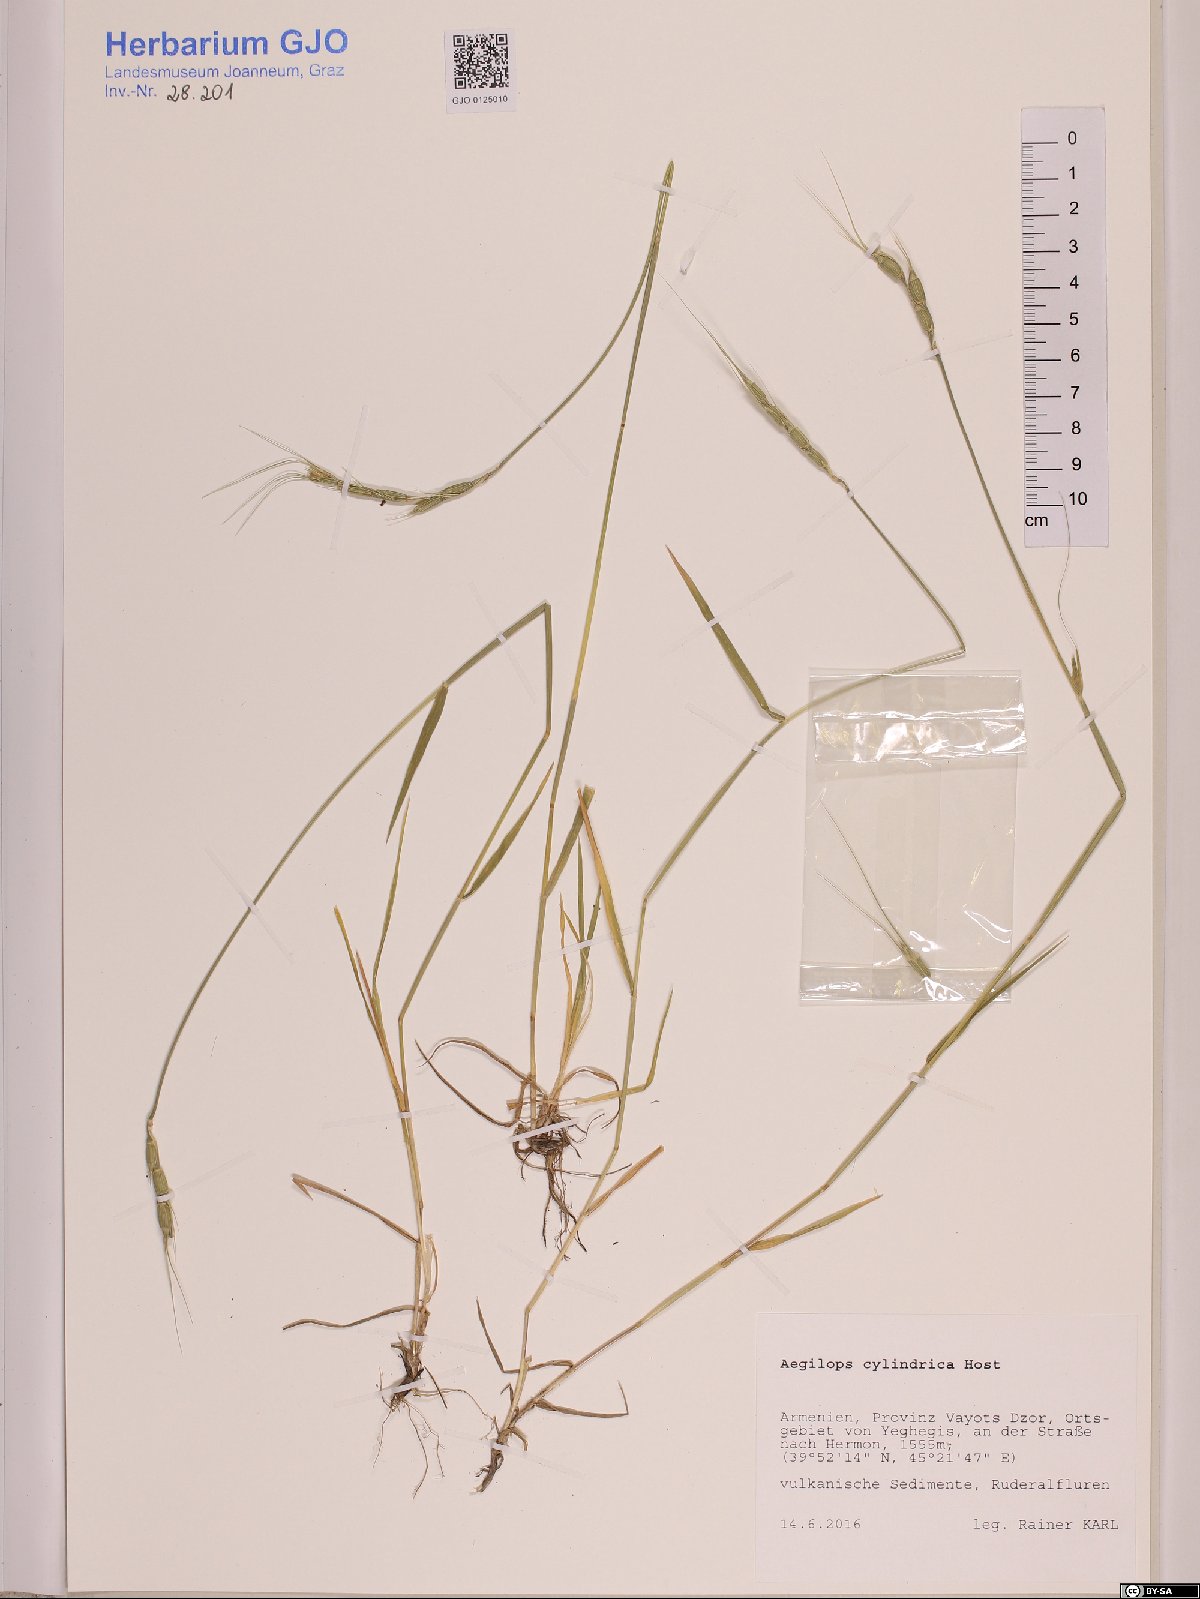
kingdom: Plantae
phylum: Tracheophyta
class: Liliopsida
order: Poales
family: Poaceae
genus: Aegilops
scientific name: Aegilops cylindrica
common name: Jointed goatgrass
